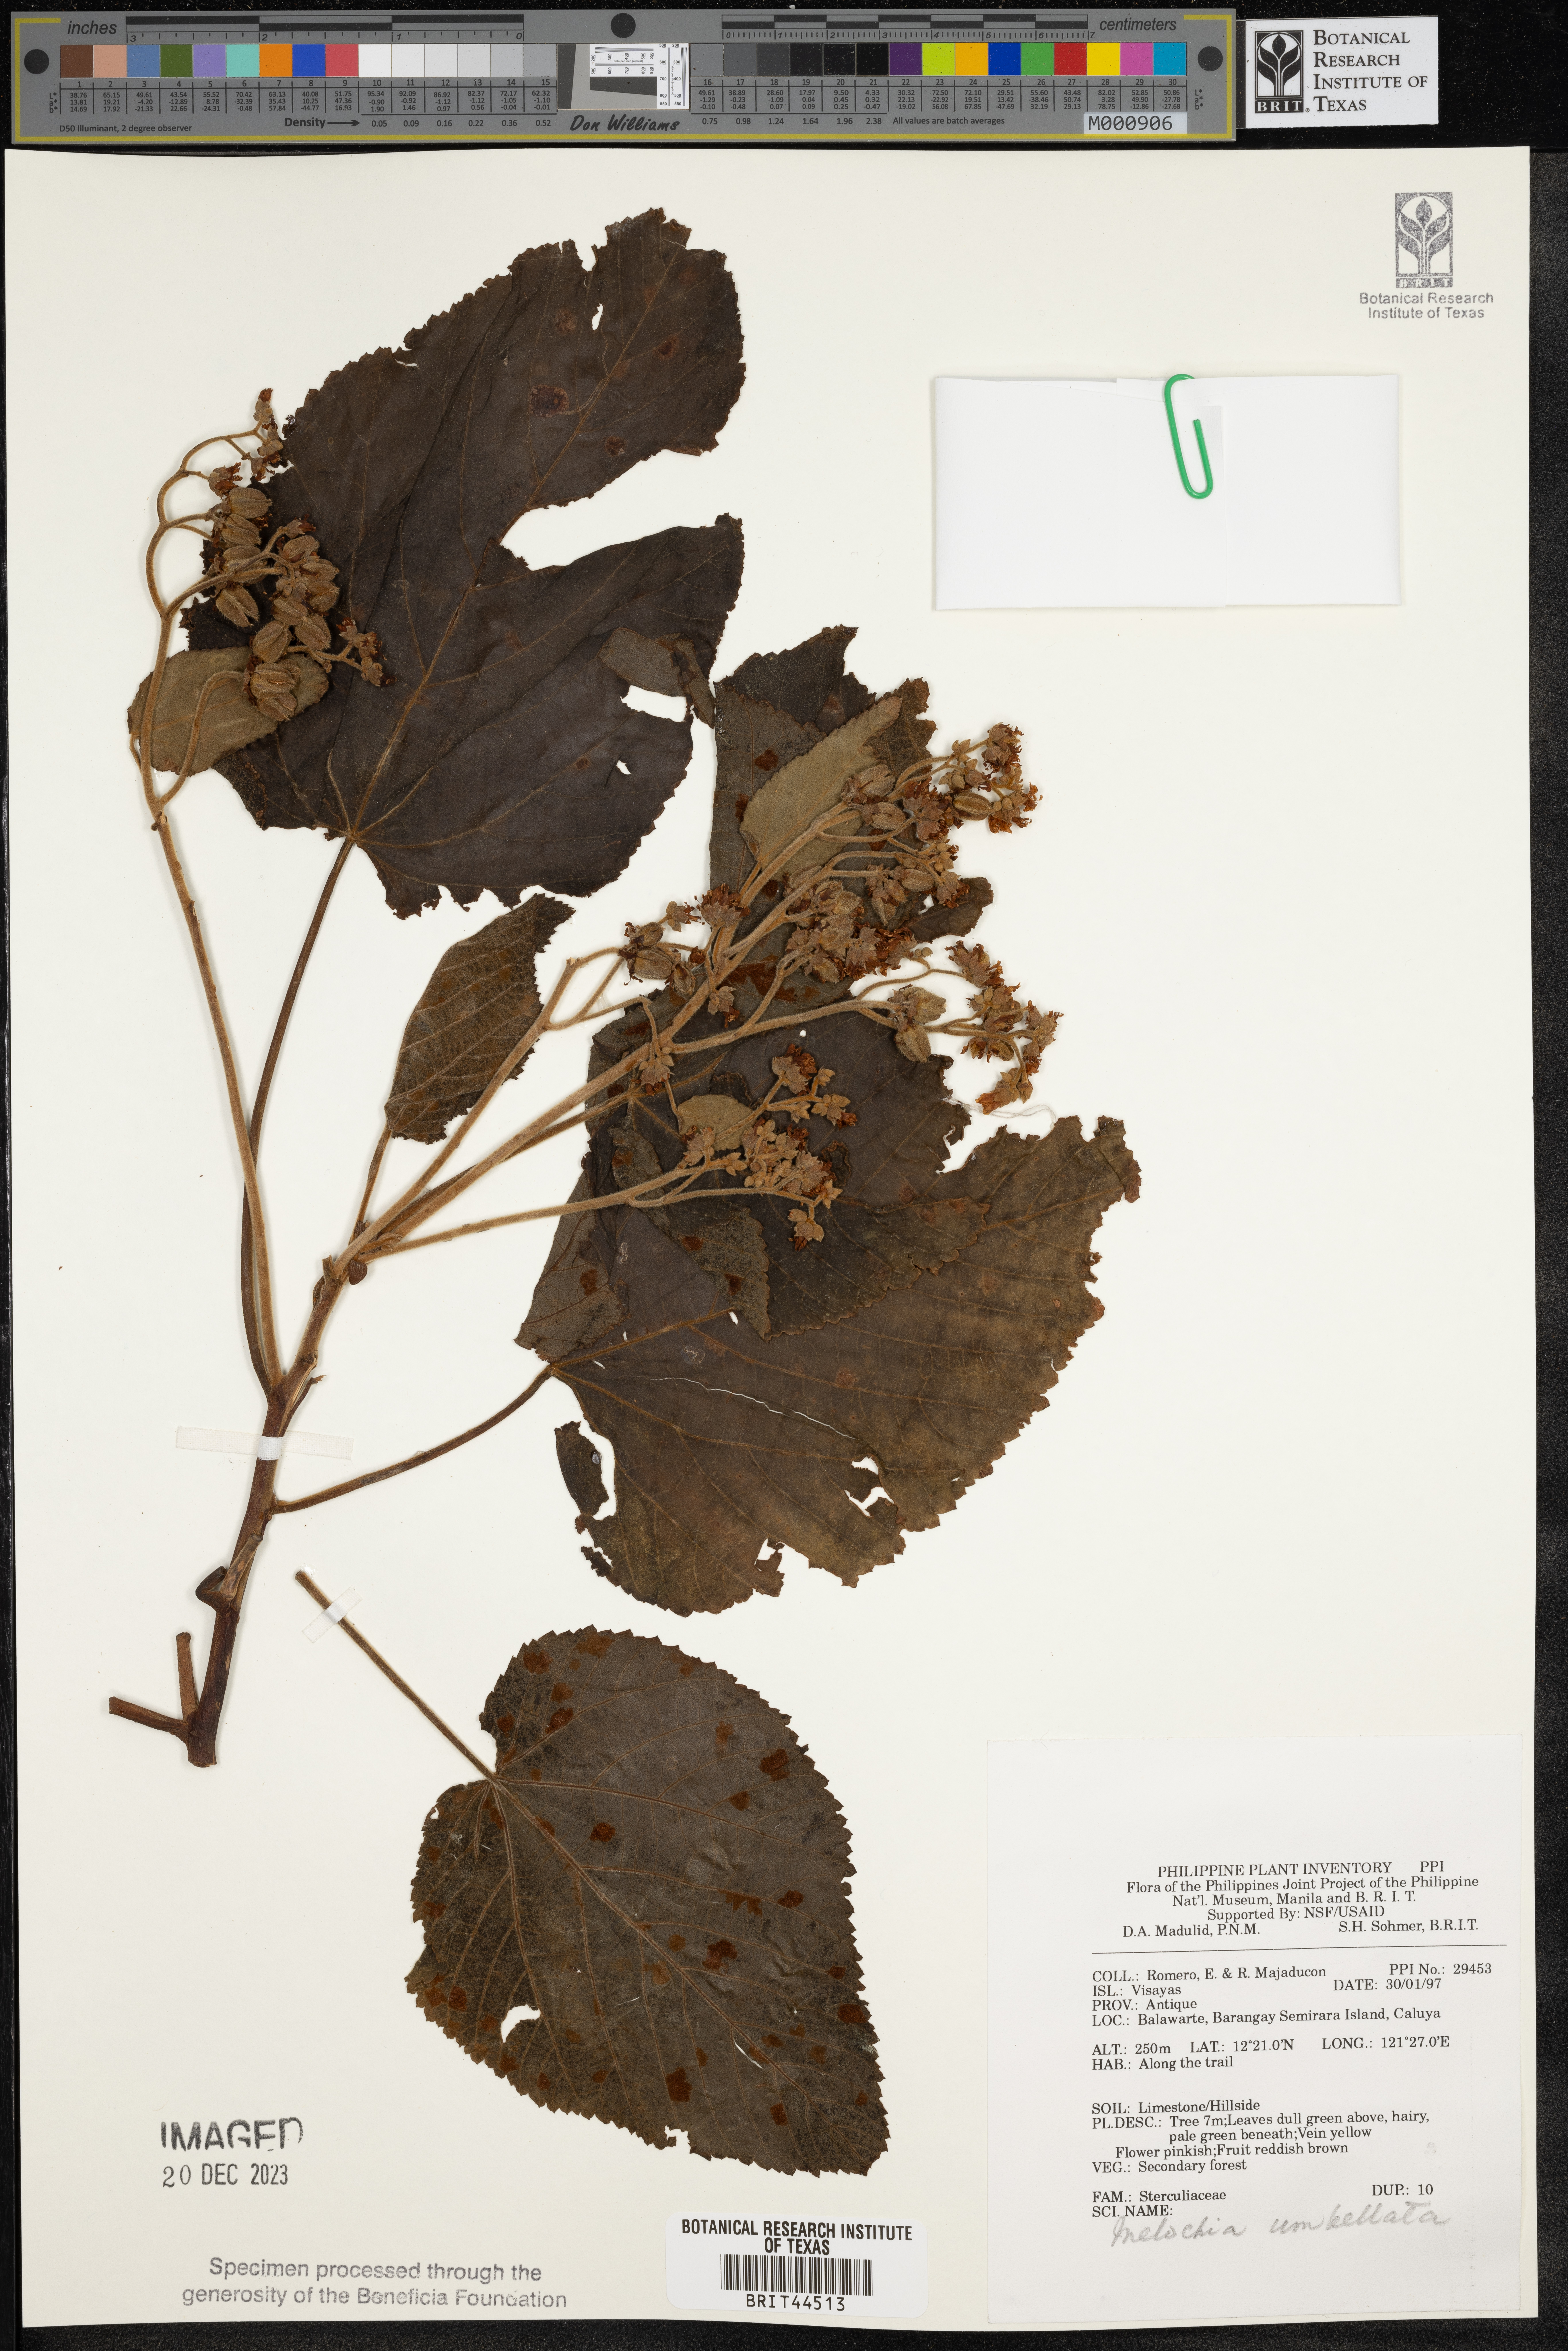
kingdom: Plantae
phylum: Tracheophyta
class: Magnoliopsida
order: Malvales
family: Malvaceae
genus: Melochia
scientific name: Melochia umbellata
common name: Gunpowder tree
